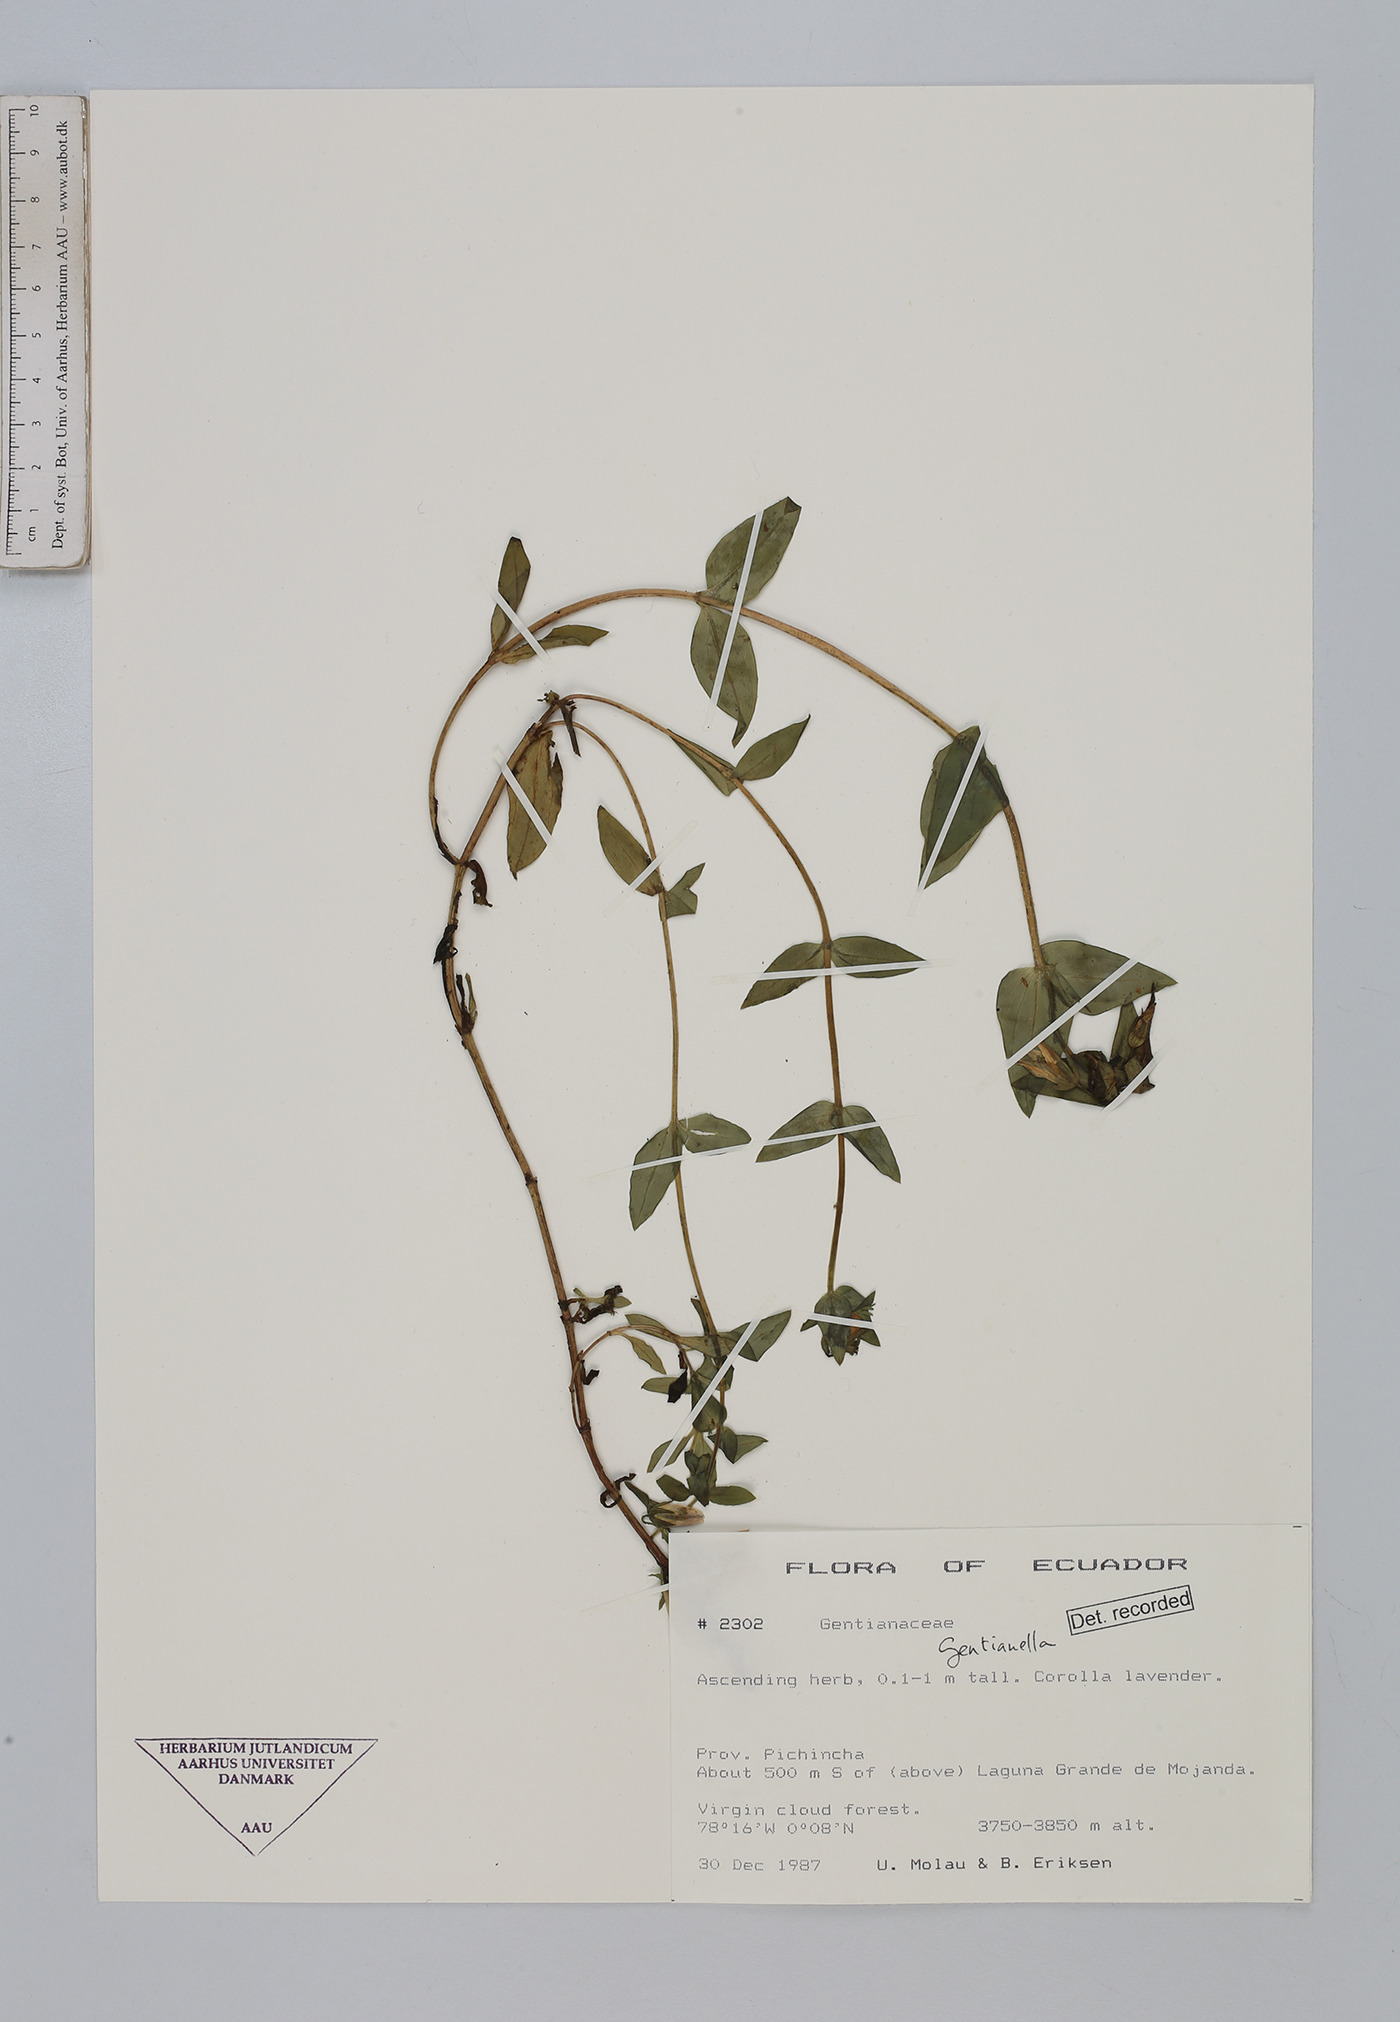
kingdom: Plantae
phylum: Tracheophyta
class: Magnoliopsida
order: Gentianales
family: Gentianaceae
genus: Gentianella
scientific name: Gentianella
